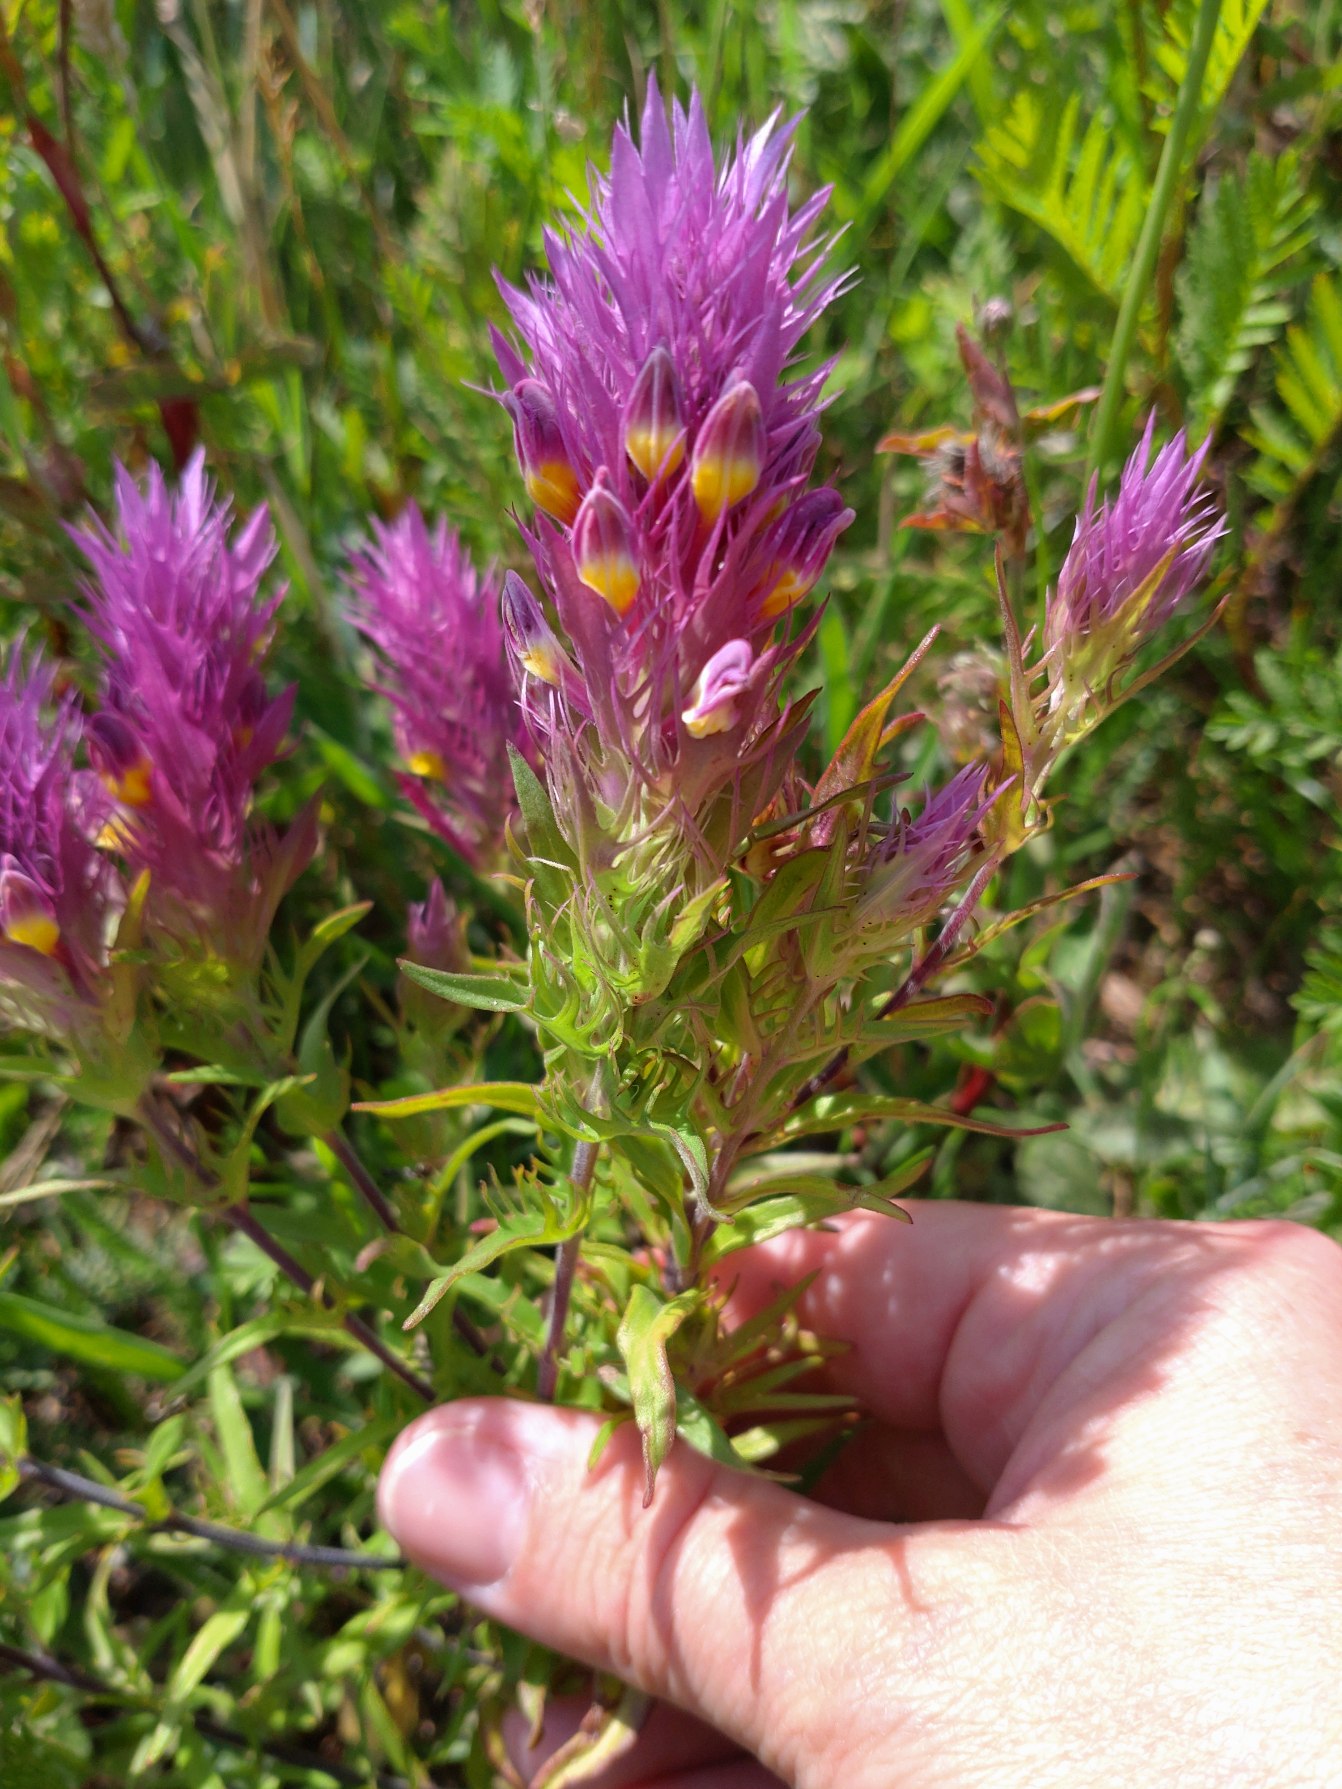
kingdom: Plantae
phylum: Tracheophyta
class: Magnoliopsida
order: Lamiales
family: Orobanchaceae
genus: Melampyrum
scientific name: Melampyrum arvense
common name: Ager-kohvede
